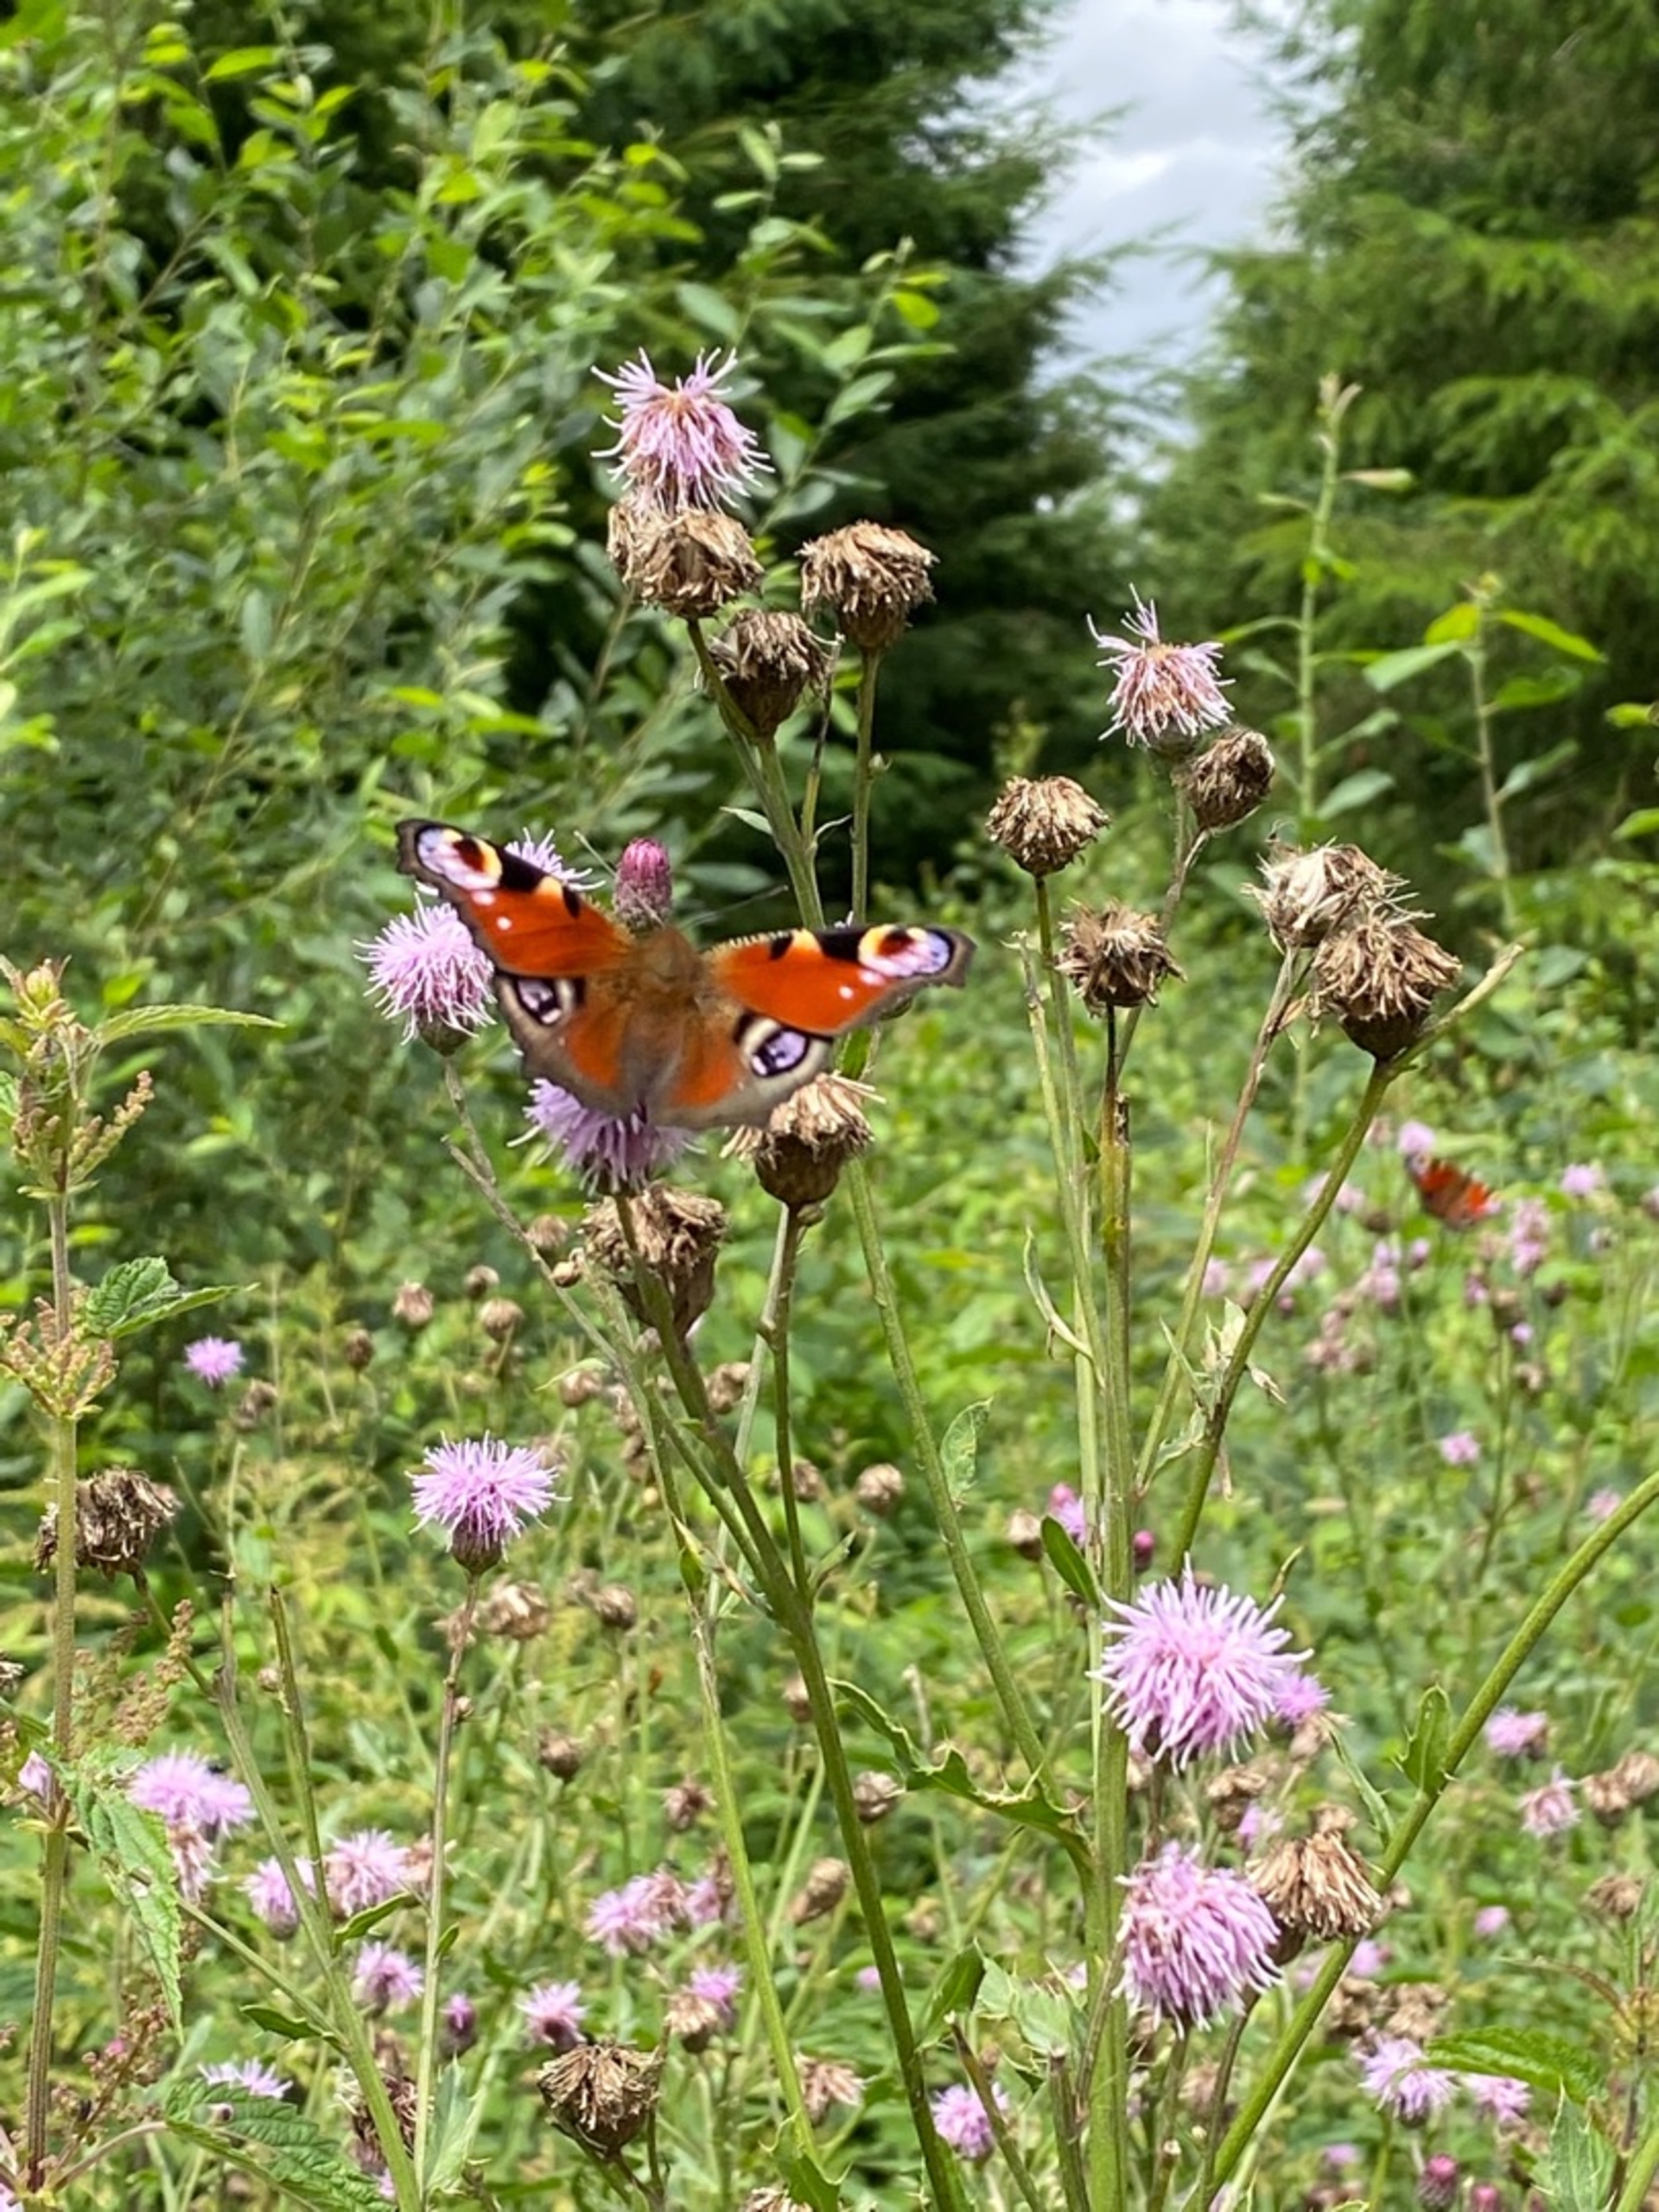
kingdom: Animalia
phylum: Arthropoda
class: Insecta
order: Lepidoptera
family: Nymphalidae
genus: Aglais
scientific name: Aglais io
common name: Dagpåfugleøje
